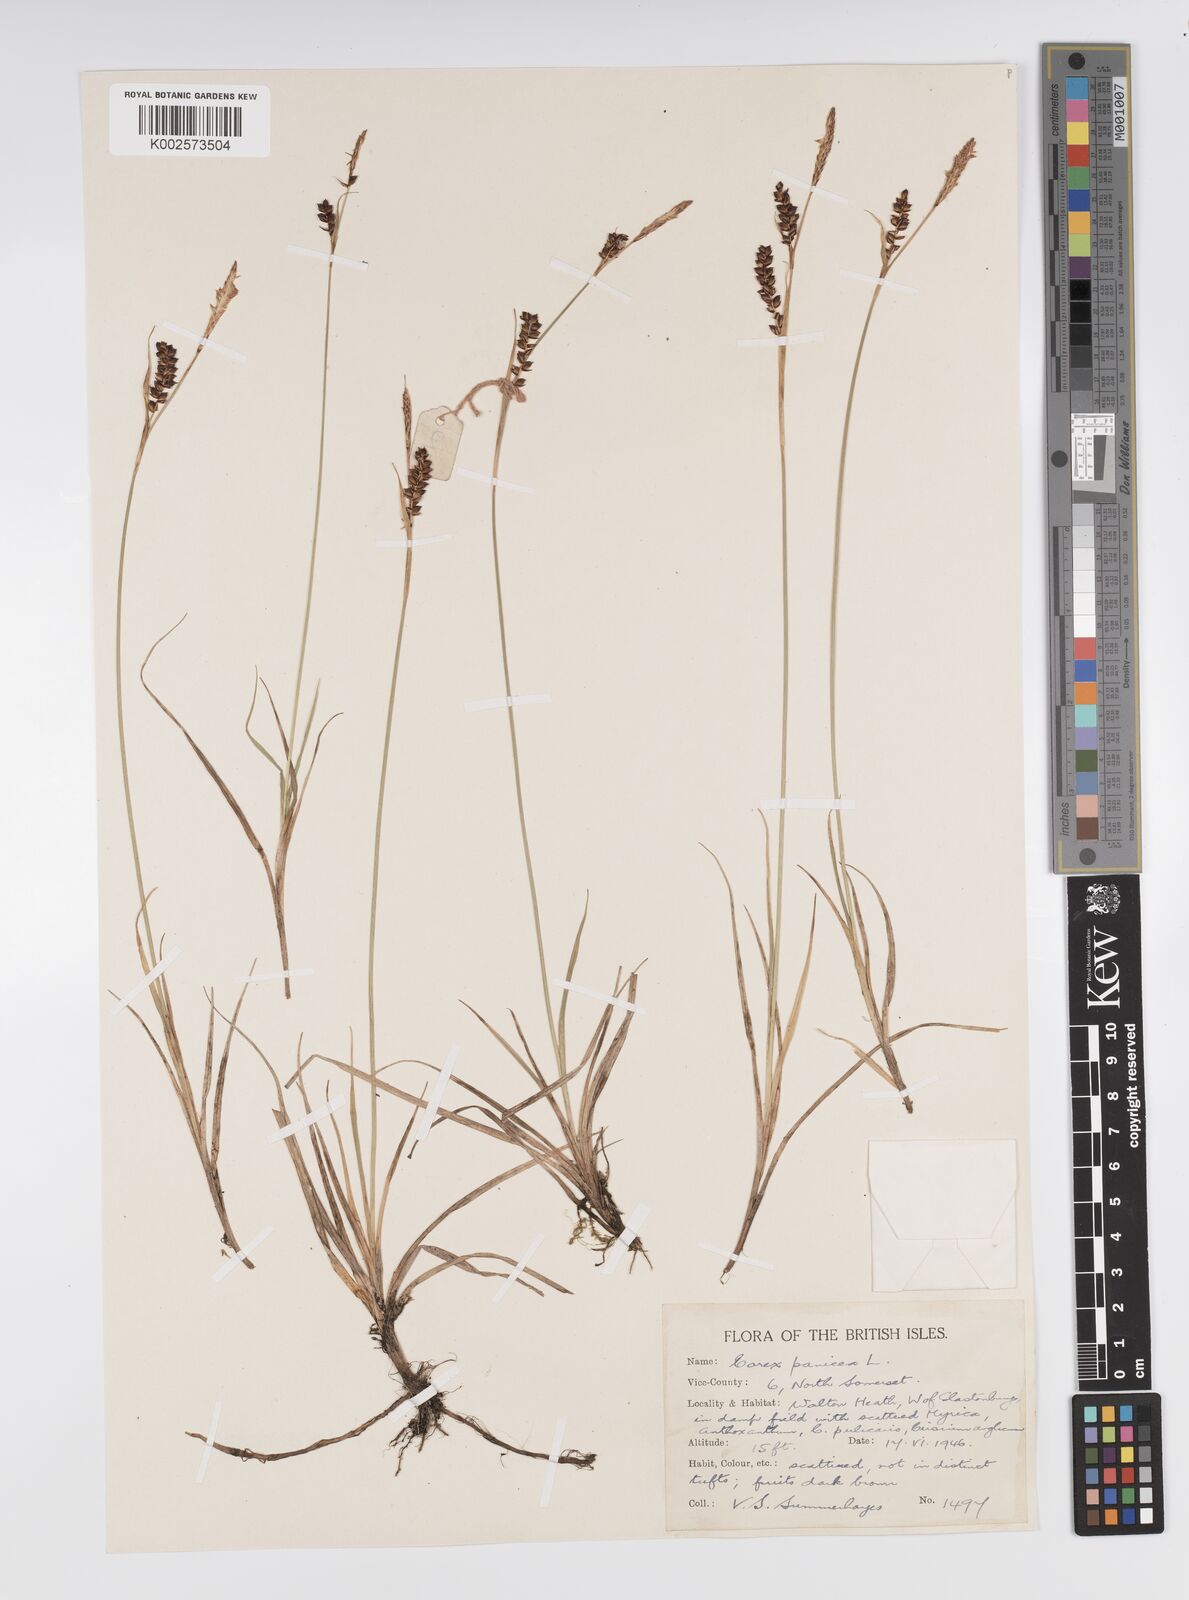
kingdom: Plantae
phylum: Tracheophyta
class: Liliopsida
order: Poales
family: Cyperaceae
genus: Carex
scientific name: Carex panicea
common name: Carnation sedge
